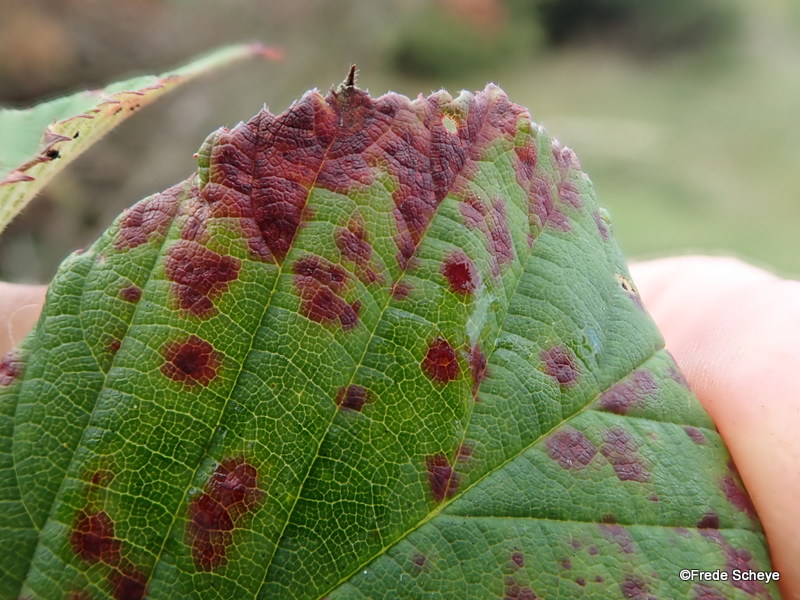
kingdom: Fungi
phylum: Basidiomycota
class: Pucciniomycetes
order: Pucciniales
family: Phragmidiaceae
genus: Phragmidium
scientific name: Phragmidium violaceum
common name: violet flercellerust
